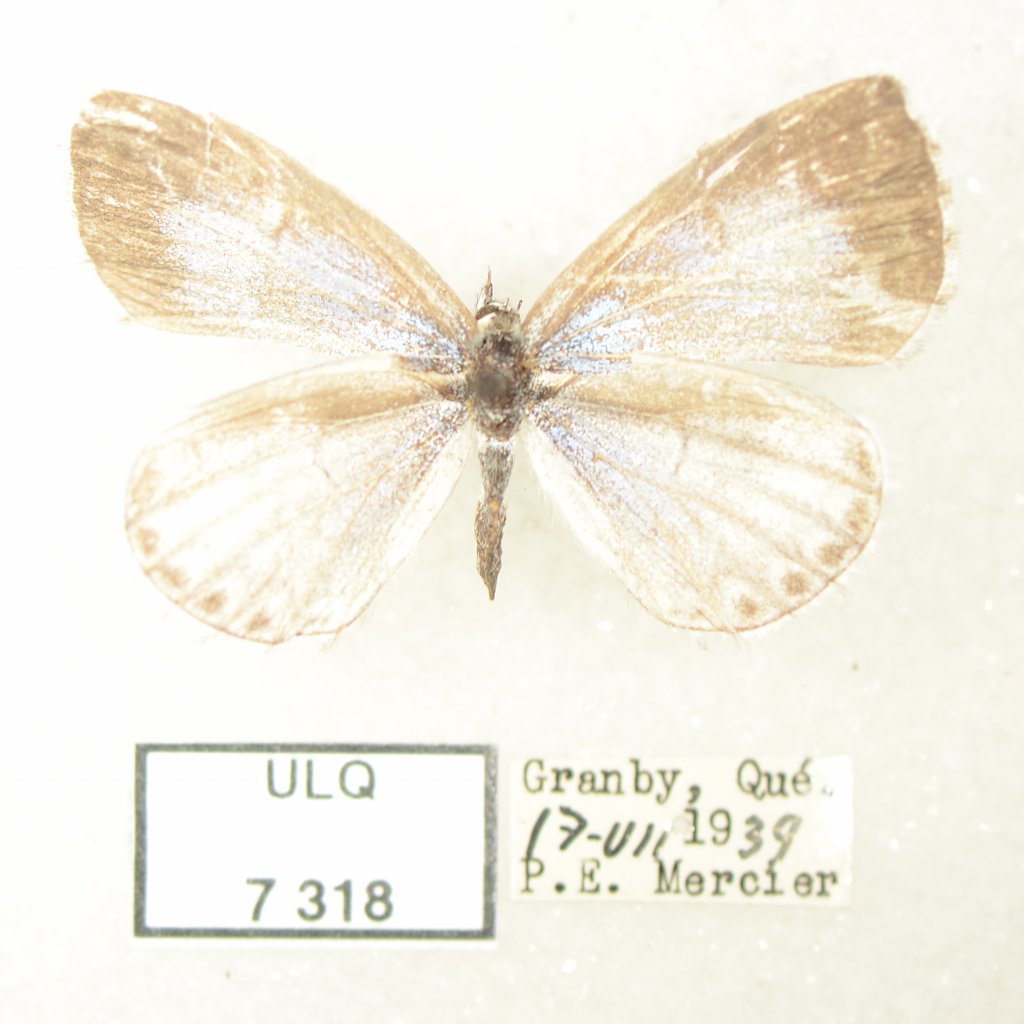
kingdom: Animalia
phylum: Arthropoda
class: Insecta
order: Lepidoptera
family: Lycaenidae
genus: Celastrina
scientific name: Celastrina lucia
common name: Northern Spring Azure
